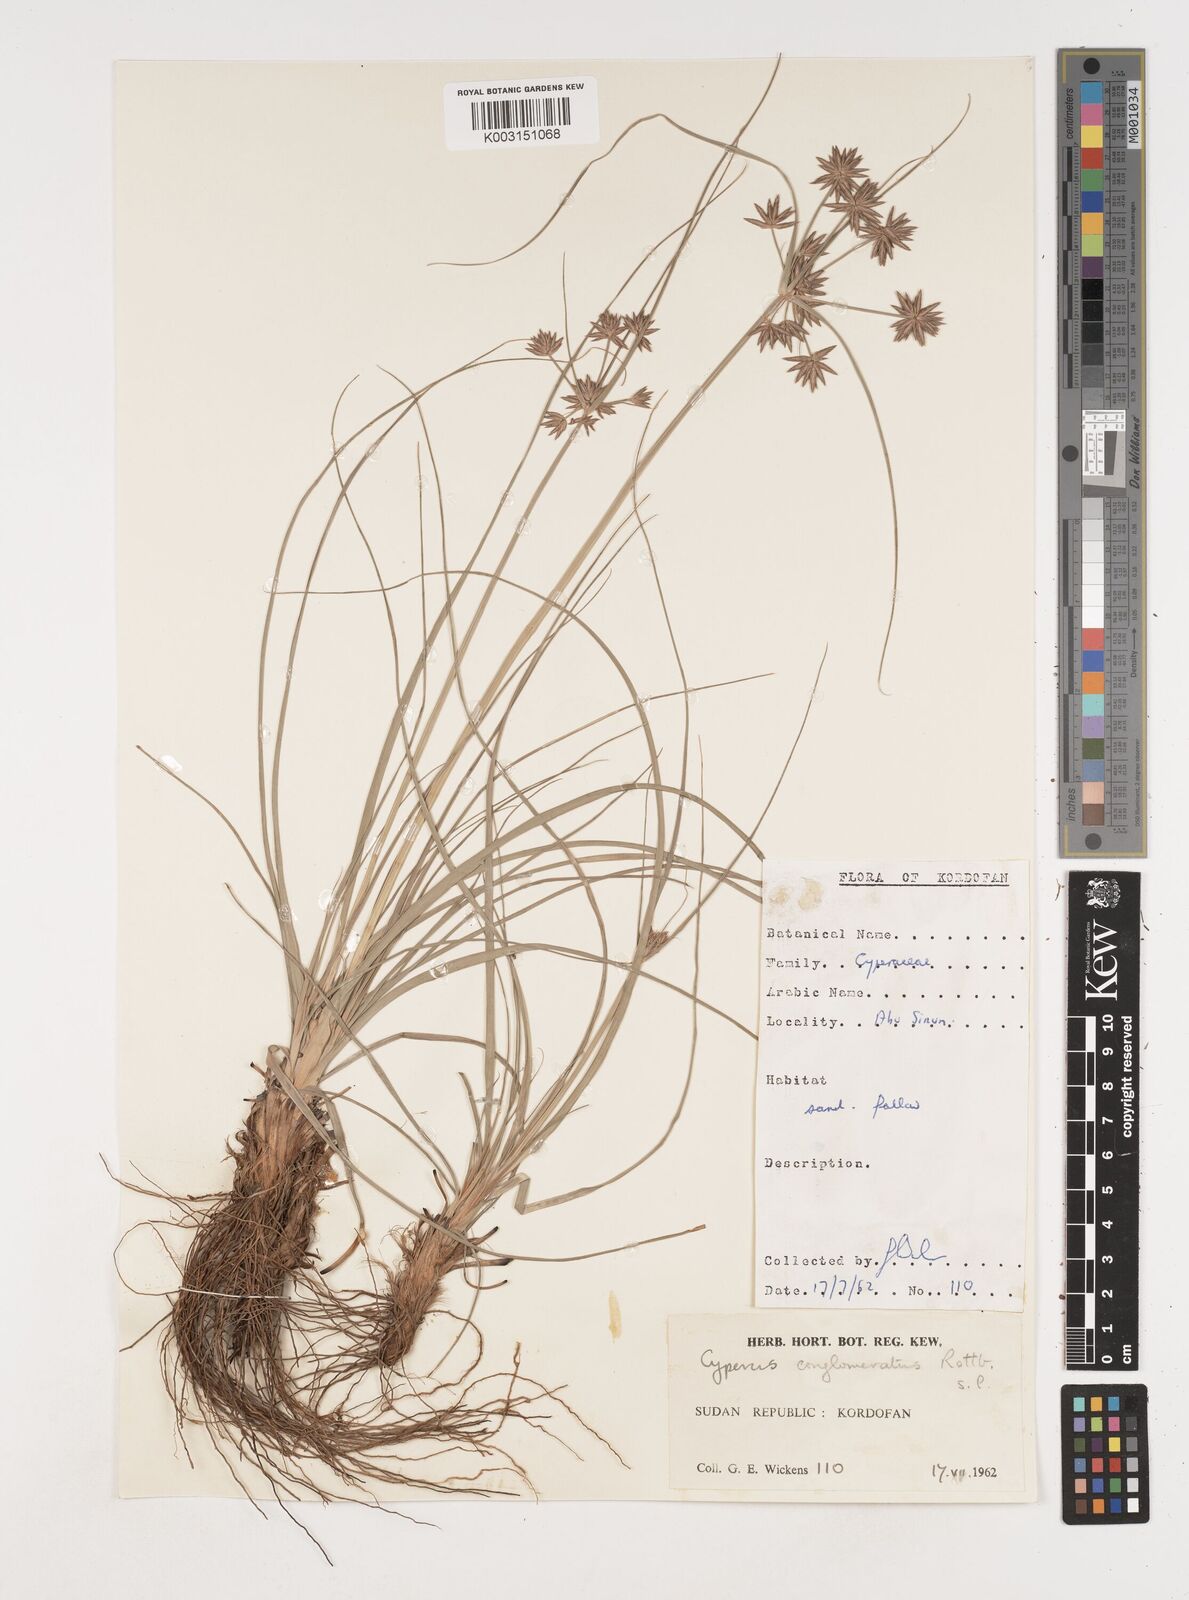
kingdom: Plantae
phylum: Tracheophyta
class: Liliopsida
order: Poales
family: Cyperaceae
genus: Cyperus
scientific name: Cyperus jeminicus
